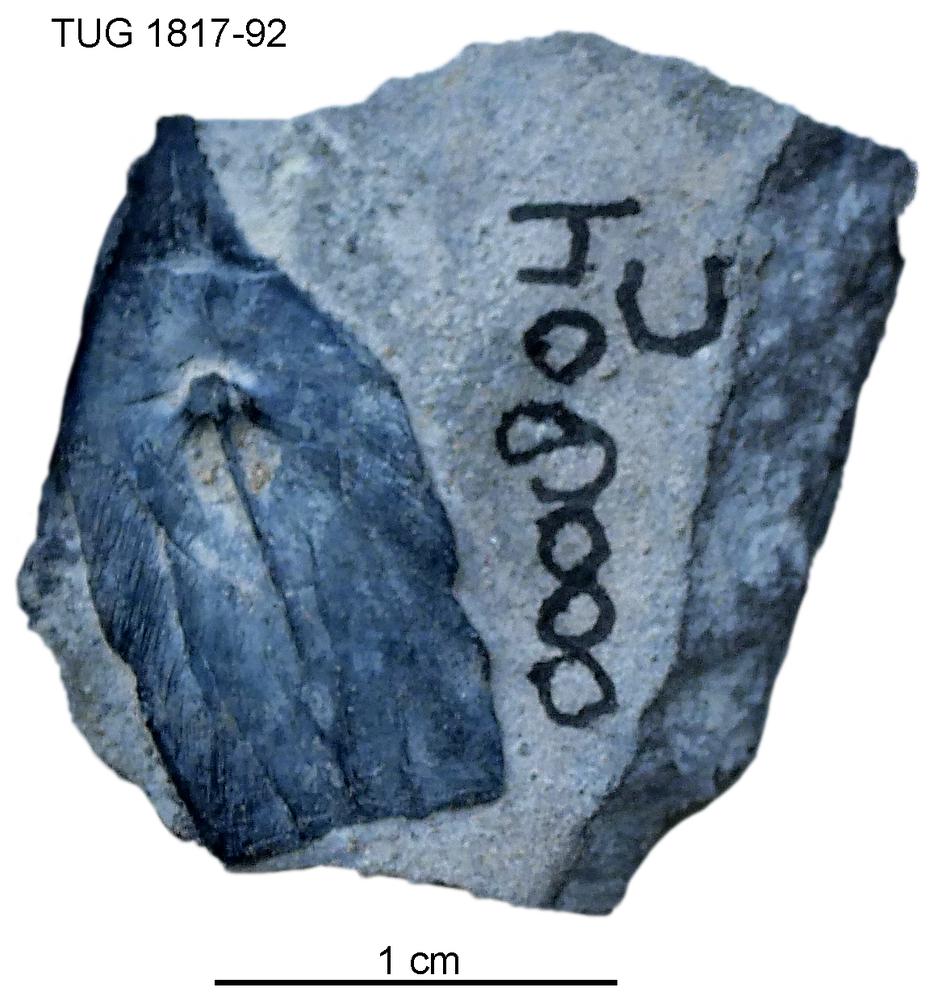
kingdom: Animalia
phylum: Chordata
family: Coccosteidae
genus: Millerosteus
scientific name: Millerosteus minor
